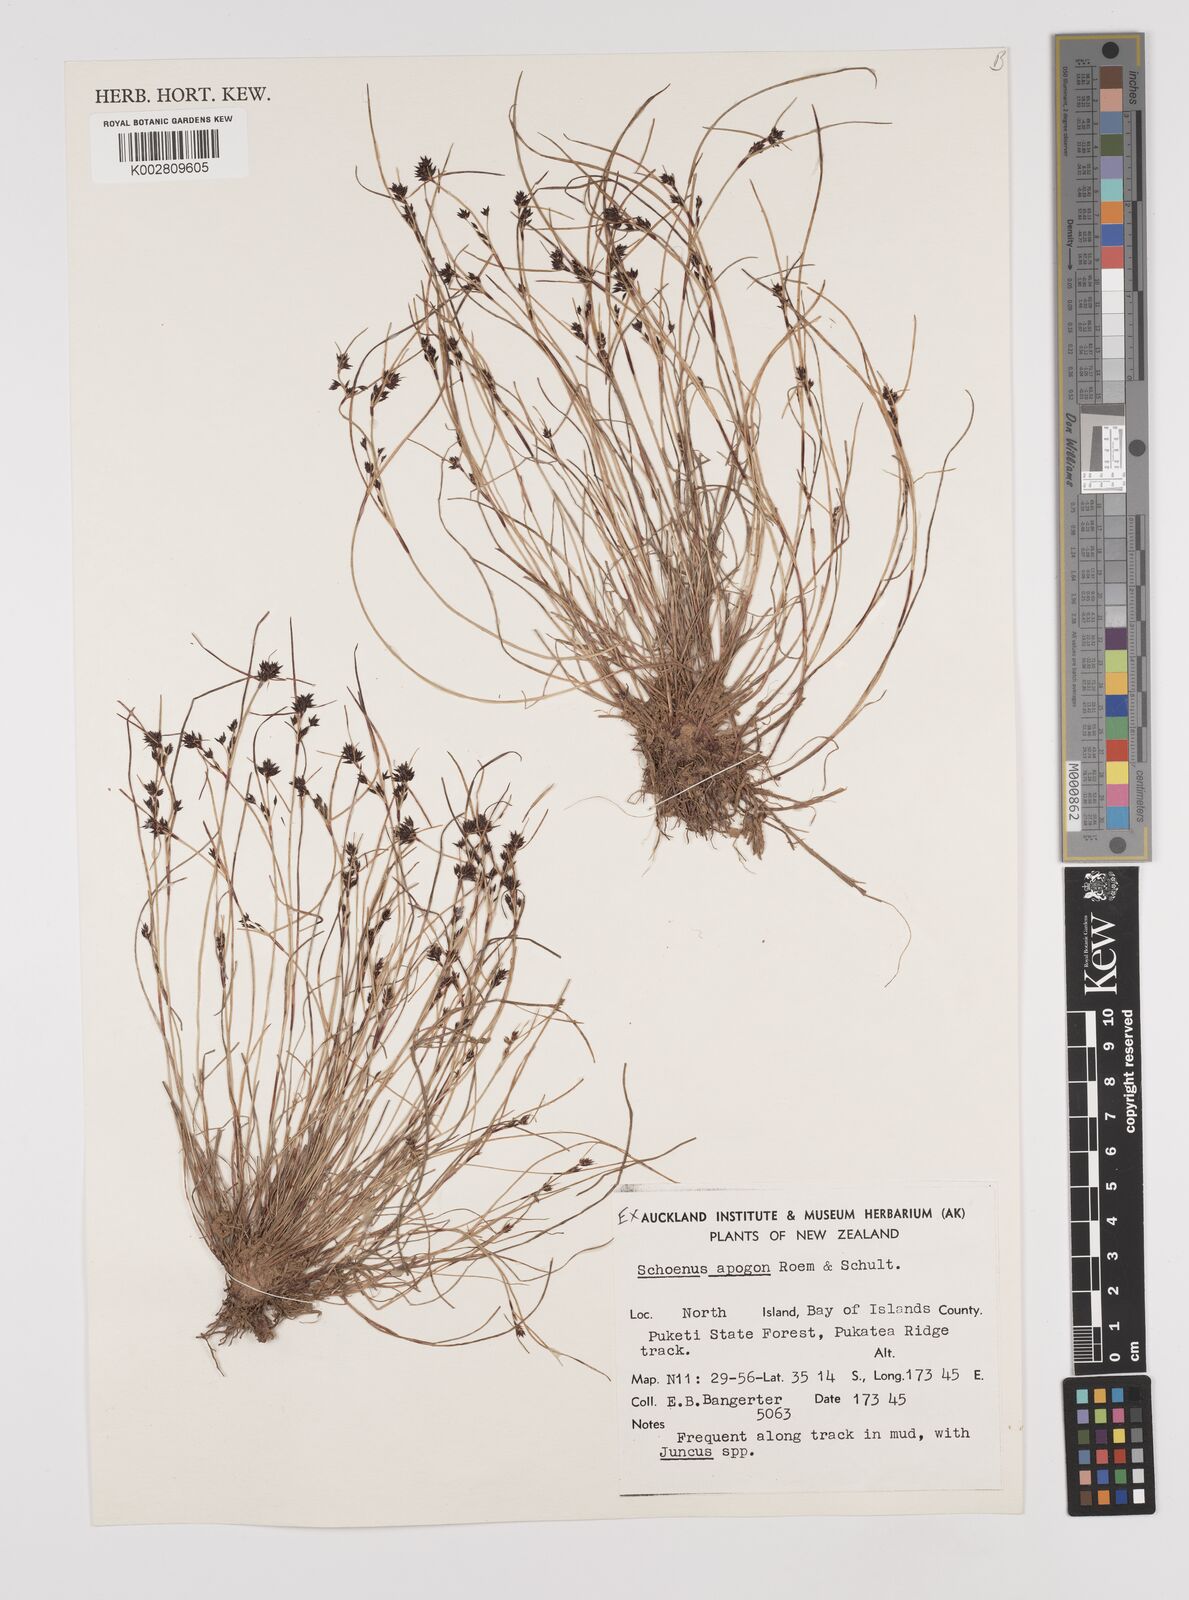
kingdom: Plantae
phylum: Tracheophyta
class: Liliopsida
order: Poales
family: Cyperaceae
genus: Schoenus
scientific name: Schoenus apogon
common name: Smooth bogrush
